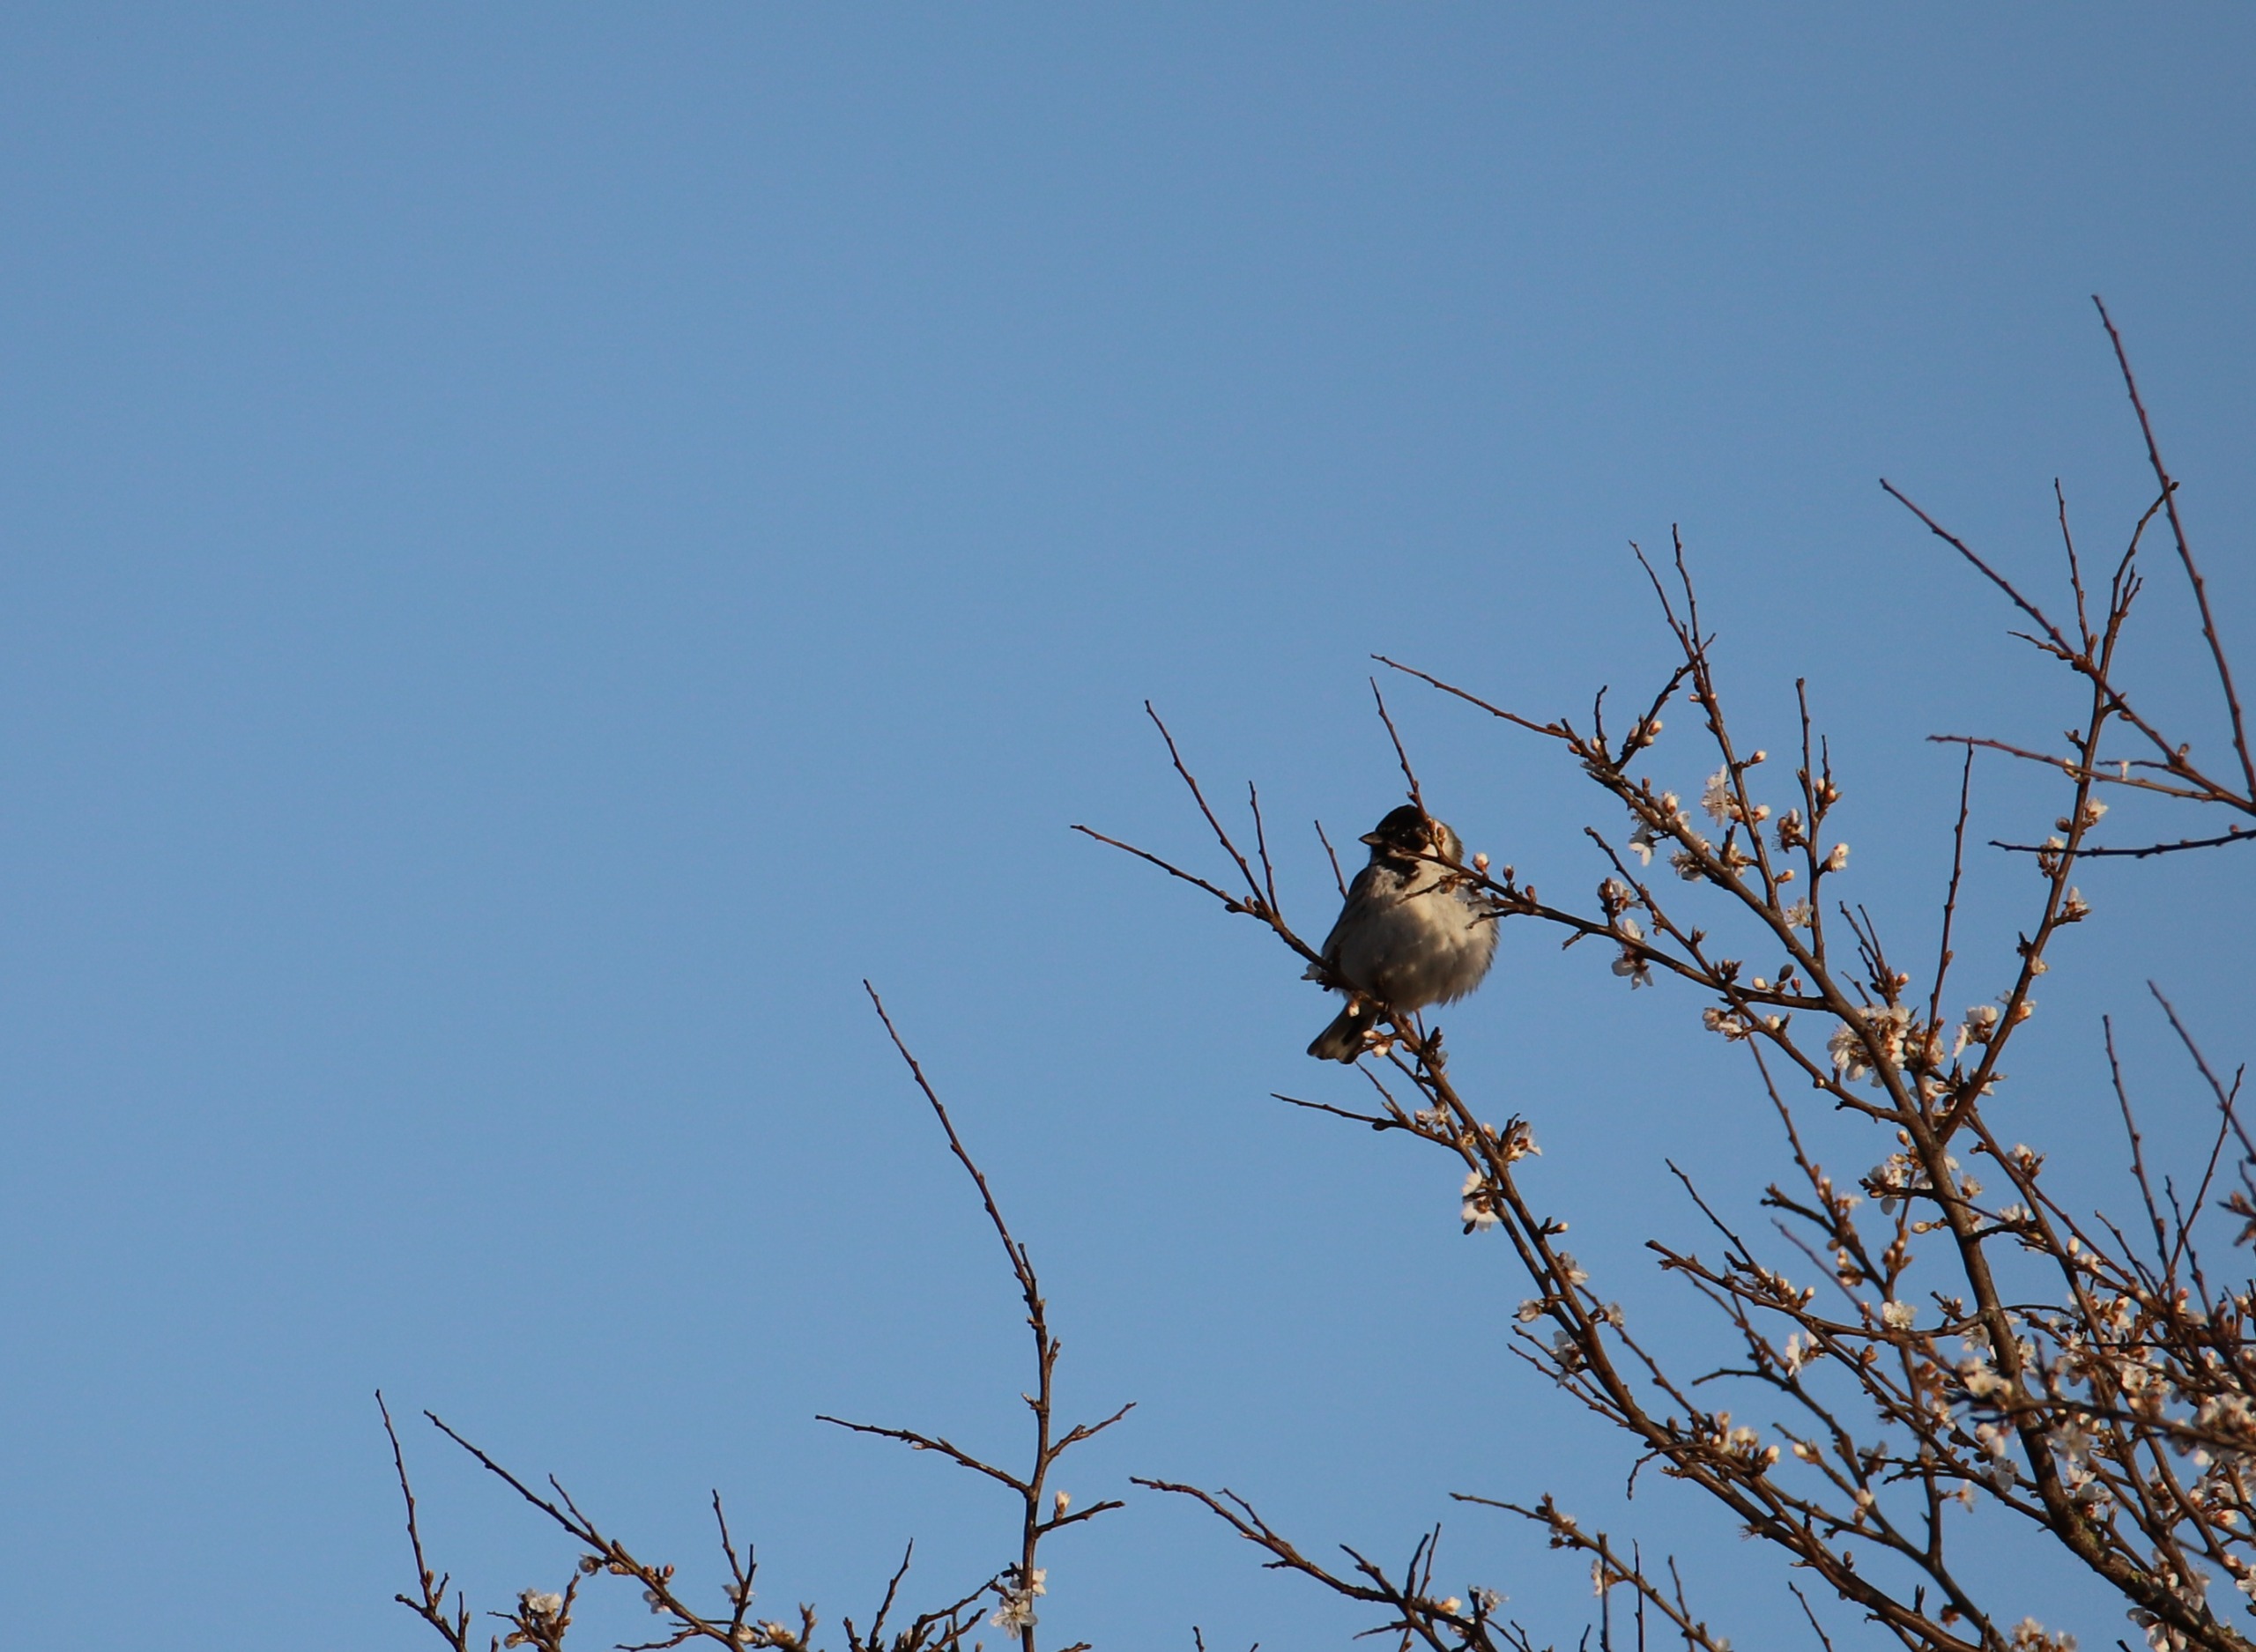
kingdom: Animalia
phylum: Chordata
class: Aves
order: Passeriformes
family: Emberizidae
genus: Emberiza
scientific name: Emberiza schoeniclus
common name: Rørspurv
